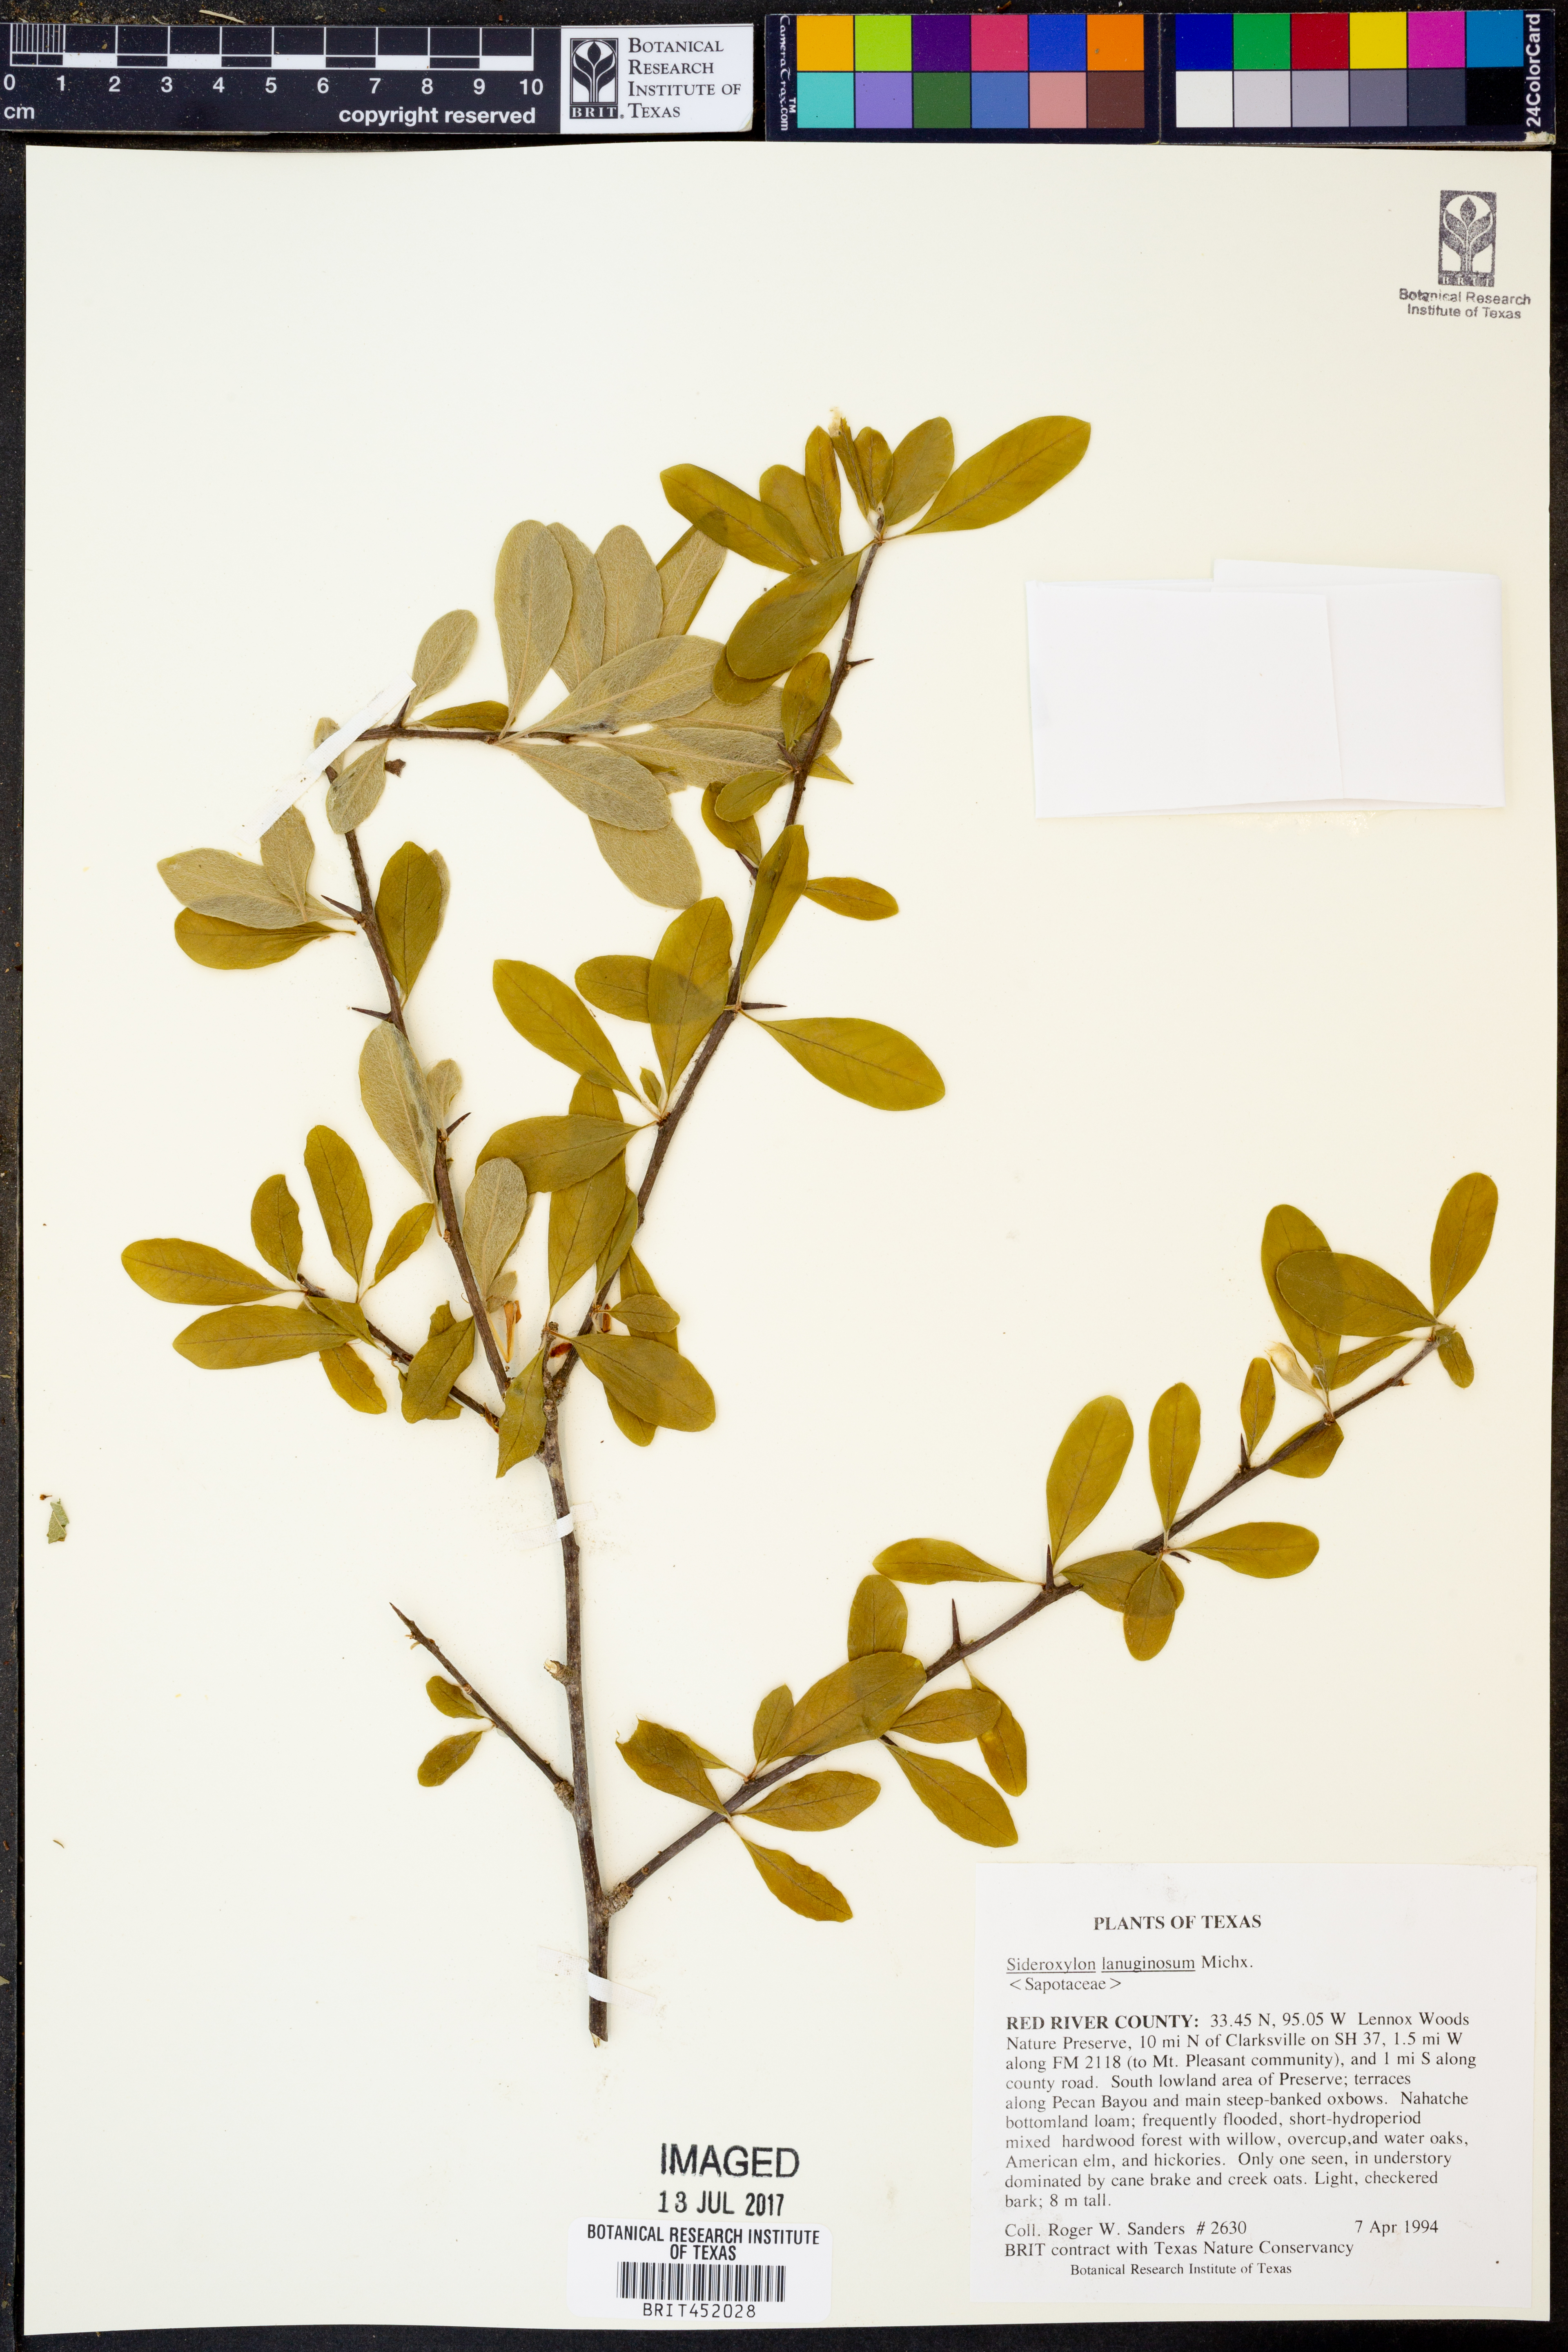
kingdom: Plantae
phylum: Tracheophyta
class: Magnoliopsida
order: Ericales
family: Sapotaceae
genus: Sideroxylon
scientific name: Sideroxylon lanuginosum
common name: Chittamwood
